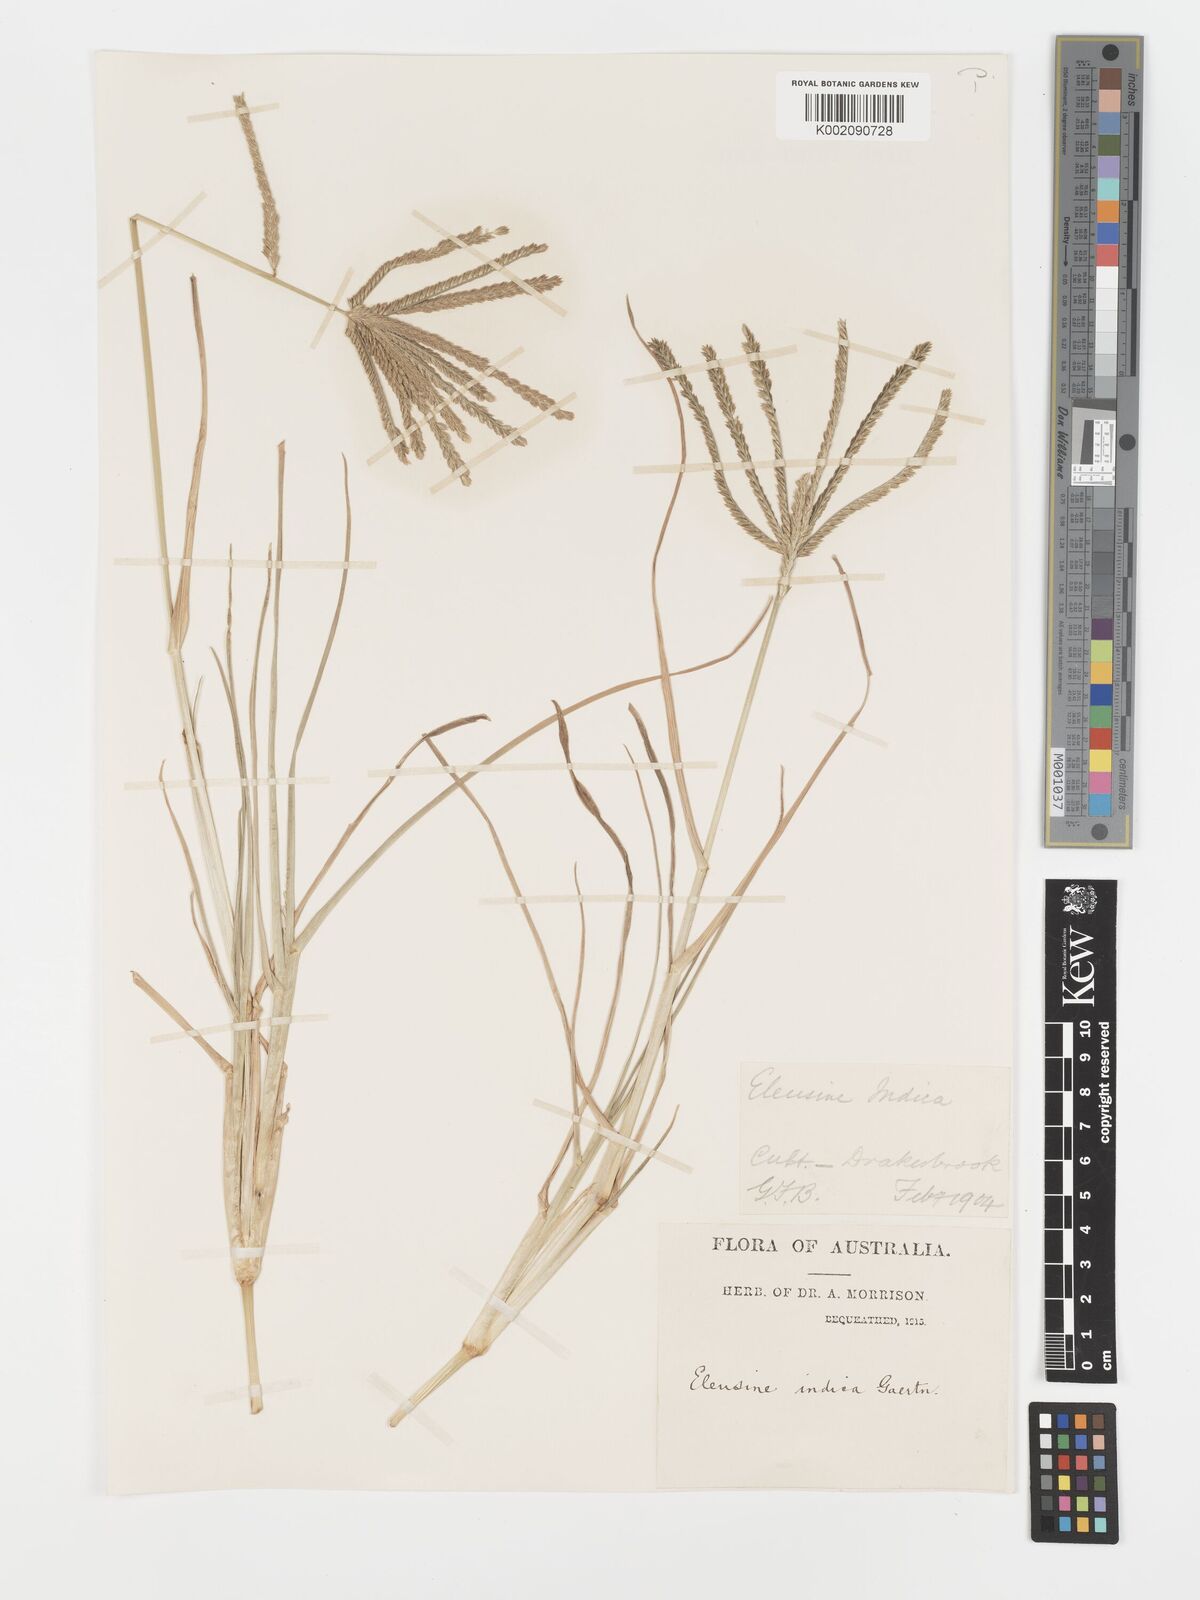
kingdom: Plantae
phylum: Tracheophyta
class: Liliopsida
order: Poales
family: Poaceae
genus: Eleusine
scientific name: Eleusine indica
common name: Yard-grass
